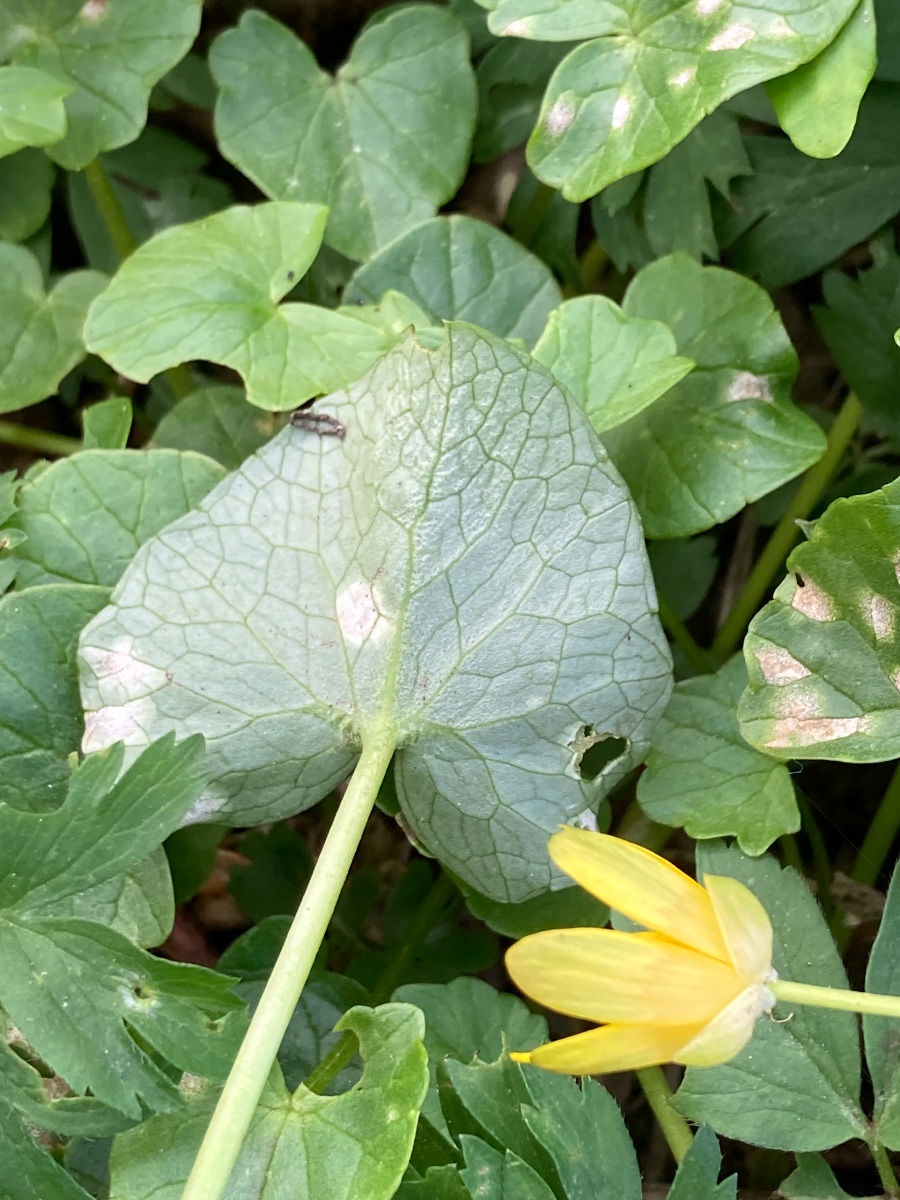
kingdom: Fungi
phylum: Basidiomycota
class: Exobasidiomycetes
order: Entylomatales
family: Entylomataceae
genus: Entyloma
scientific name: Entyloma ficariae
